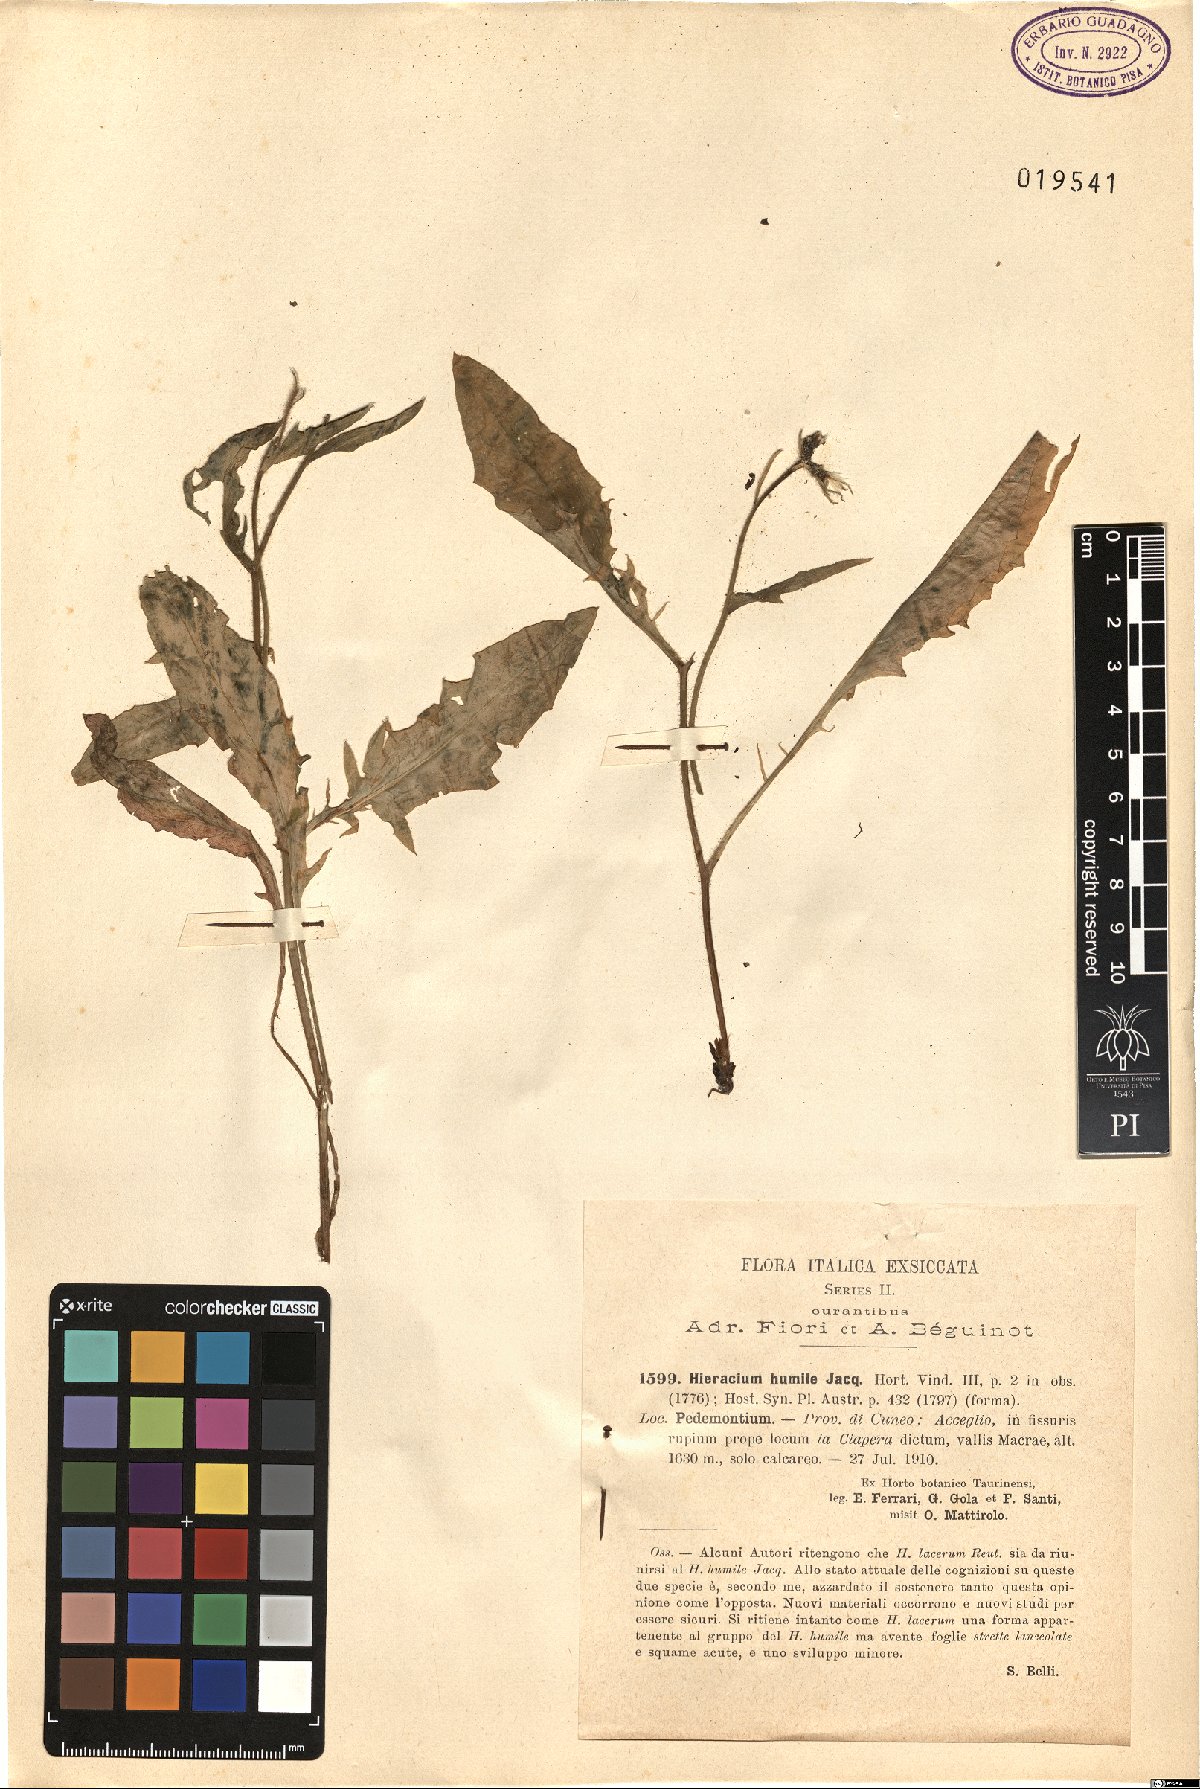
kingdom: Plantae
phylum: Tracheophyta
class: Magnoliopsida
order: Asterales
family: Asteraceae
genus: Hieracium
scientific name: Hieracium humile
